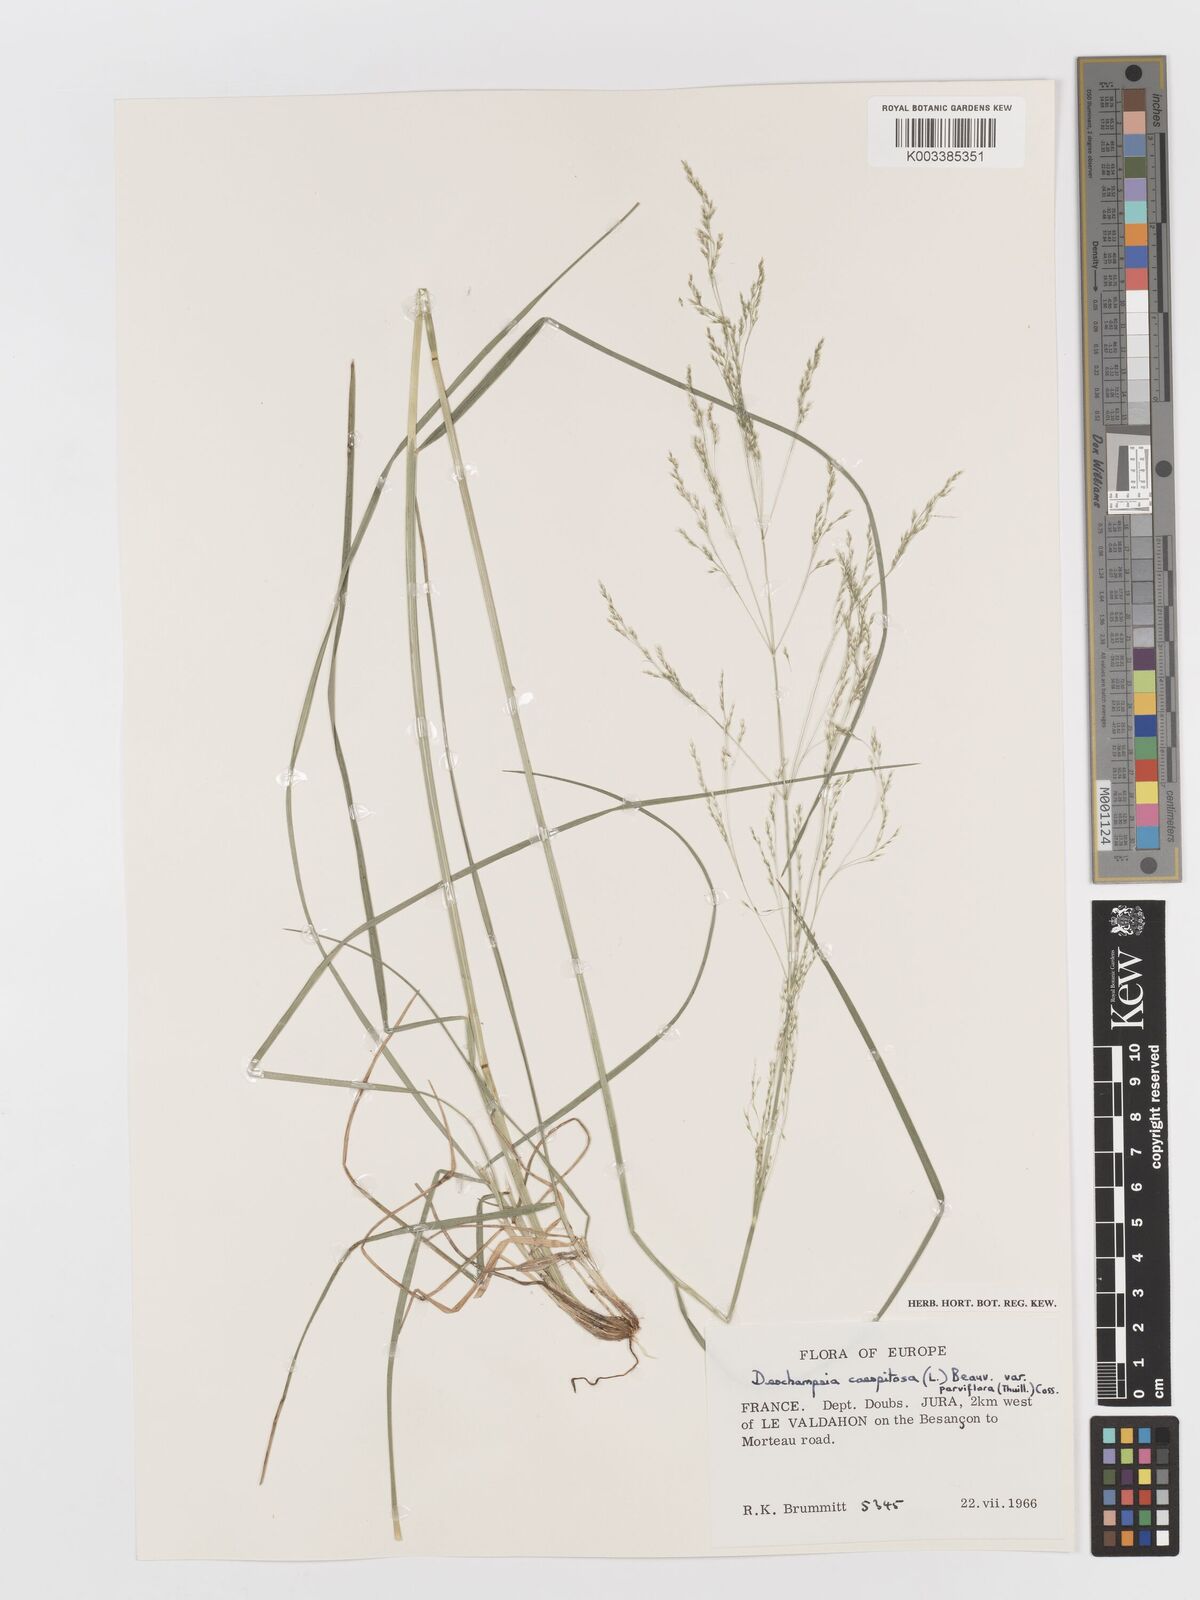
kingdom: Plantae
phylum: Tracheophyta
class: Liliopsida
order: Poales
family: Poaceae
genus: Deschampsia
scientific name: Deschampsia cespitosa
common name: Tufted hair-grass
